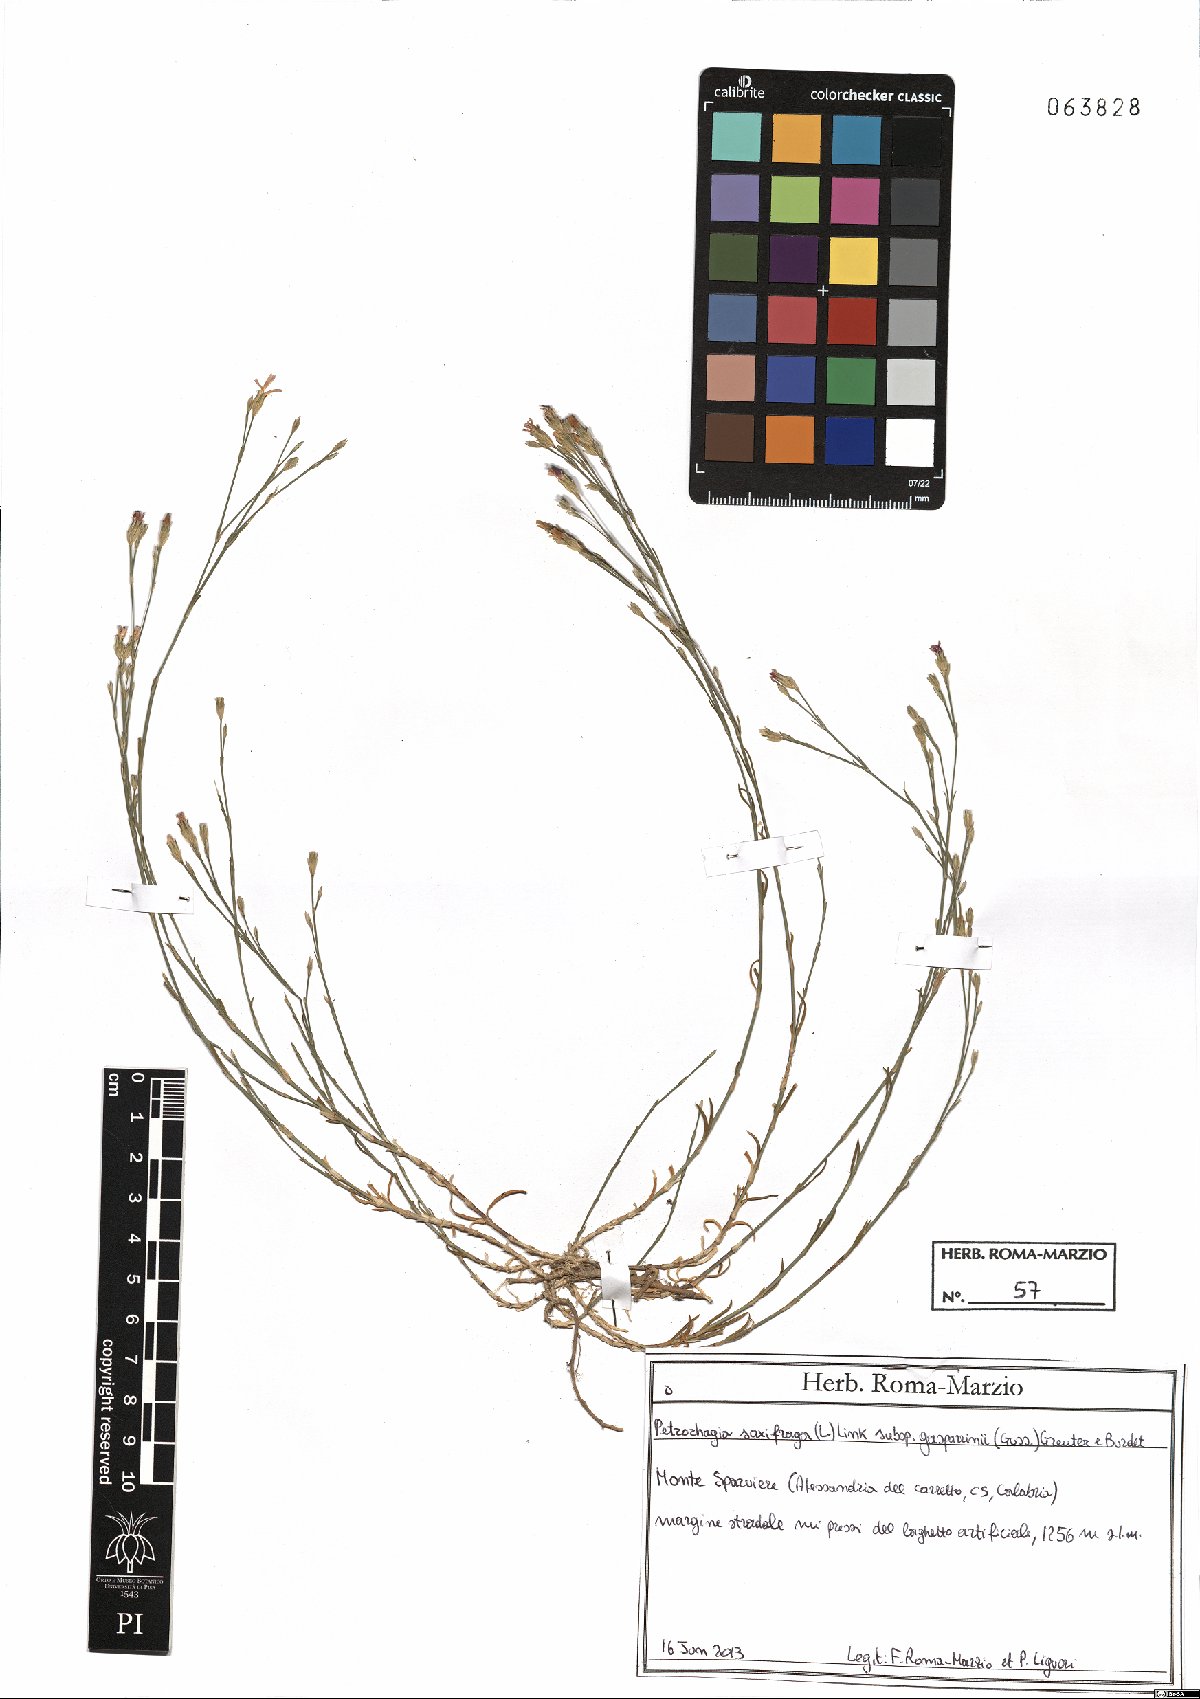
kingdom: Plantae
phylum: Tracheophyta
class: Magnoliopsida
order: Caryophyllales
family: Caryophyllaceae
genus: Petrorhagia
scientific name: Petrorhagia saxifraga
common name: Tunicflower
